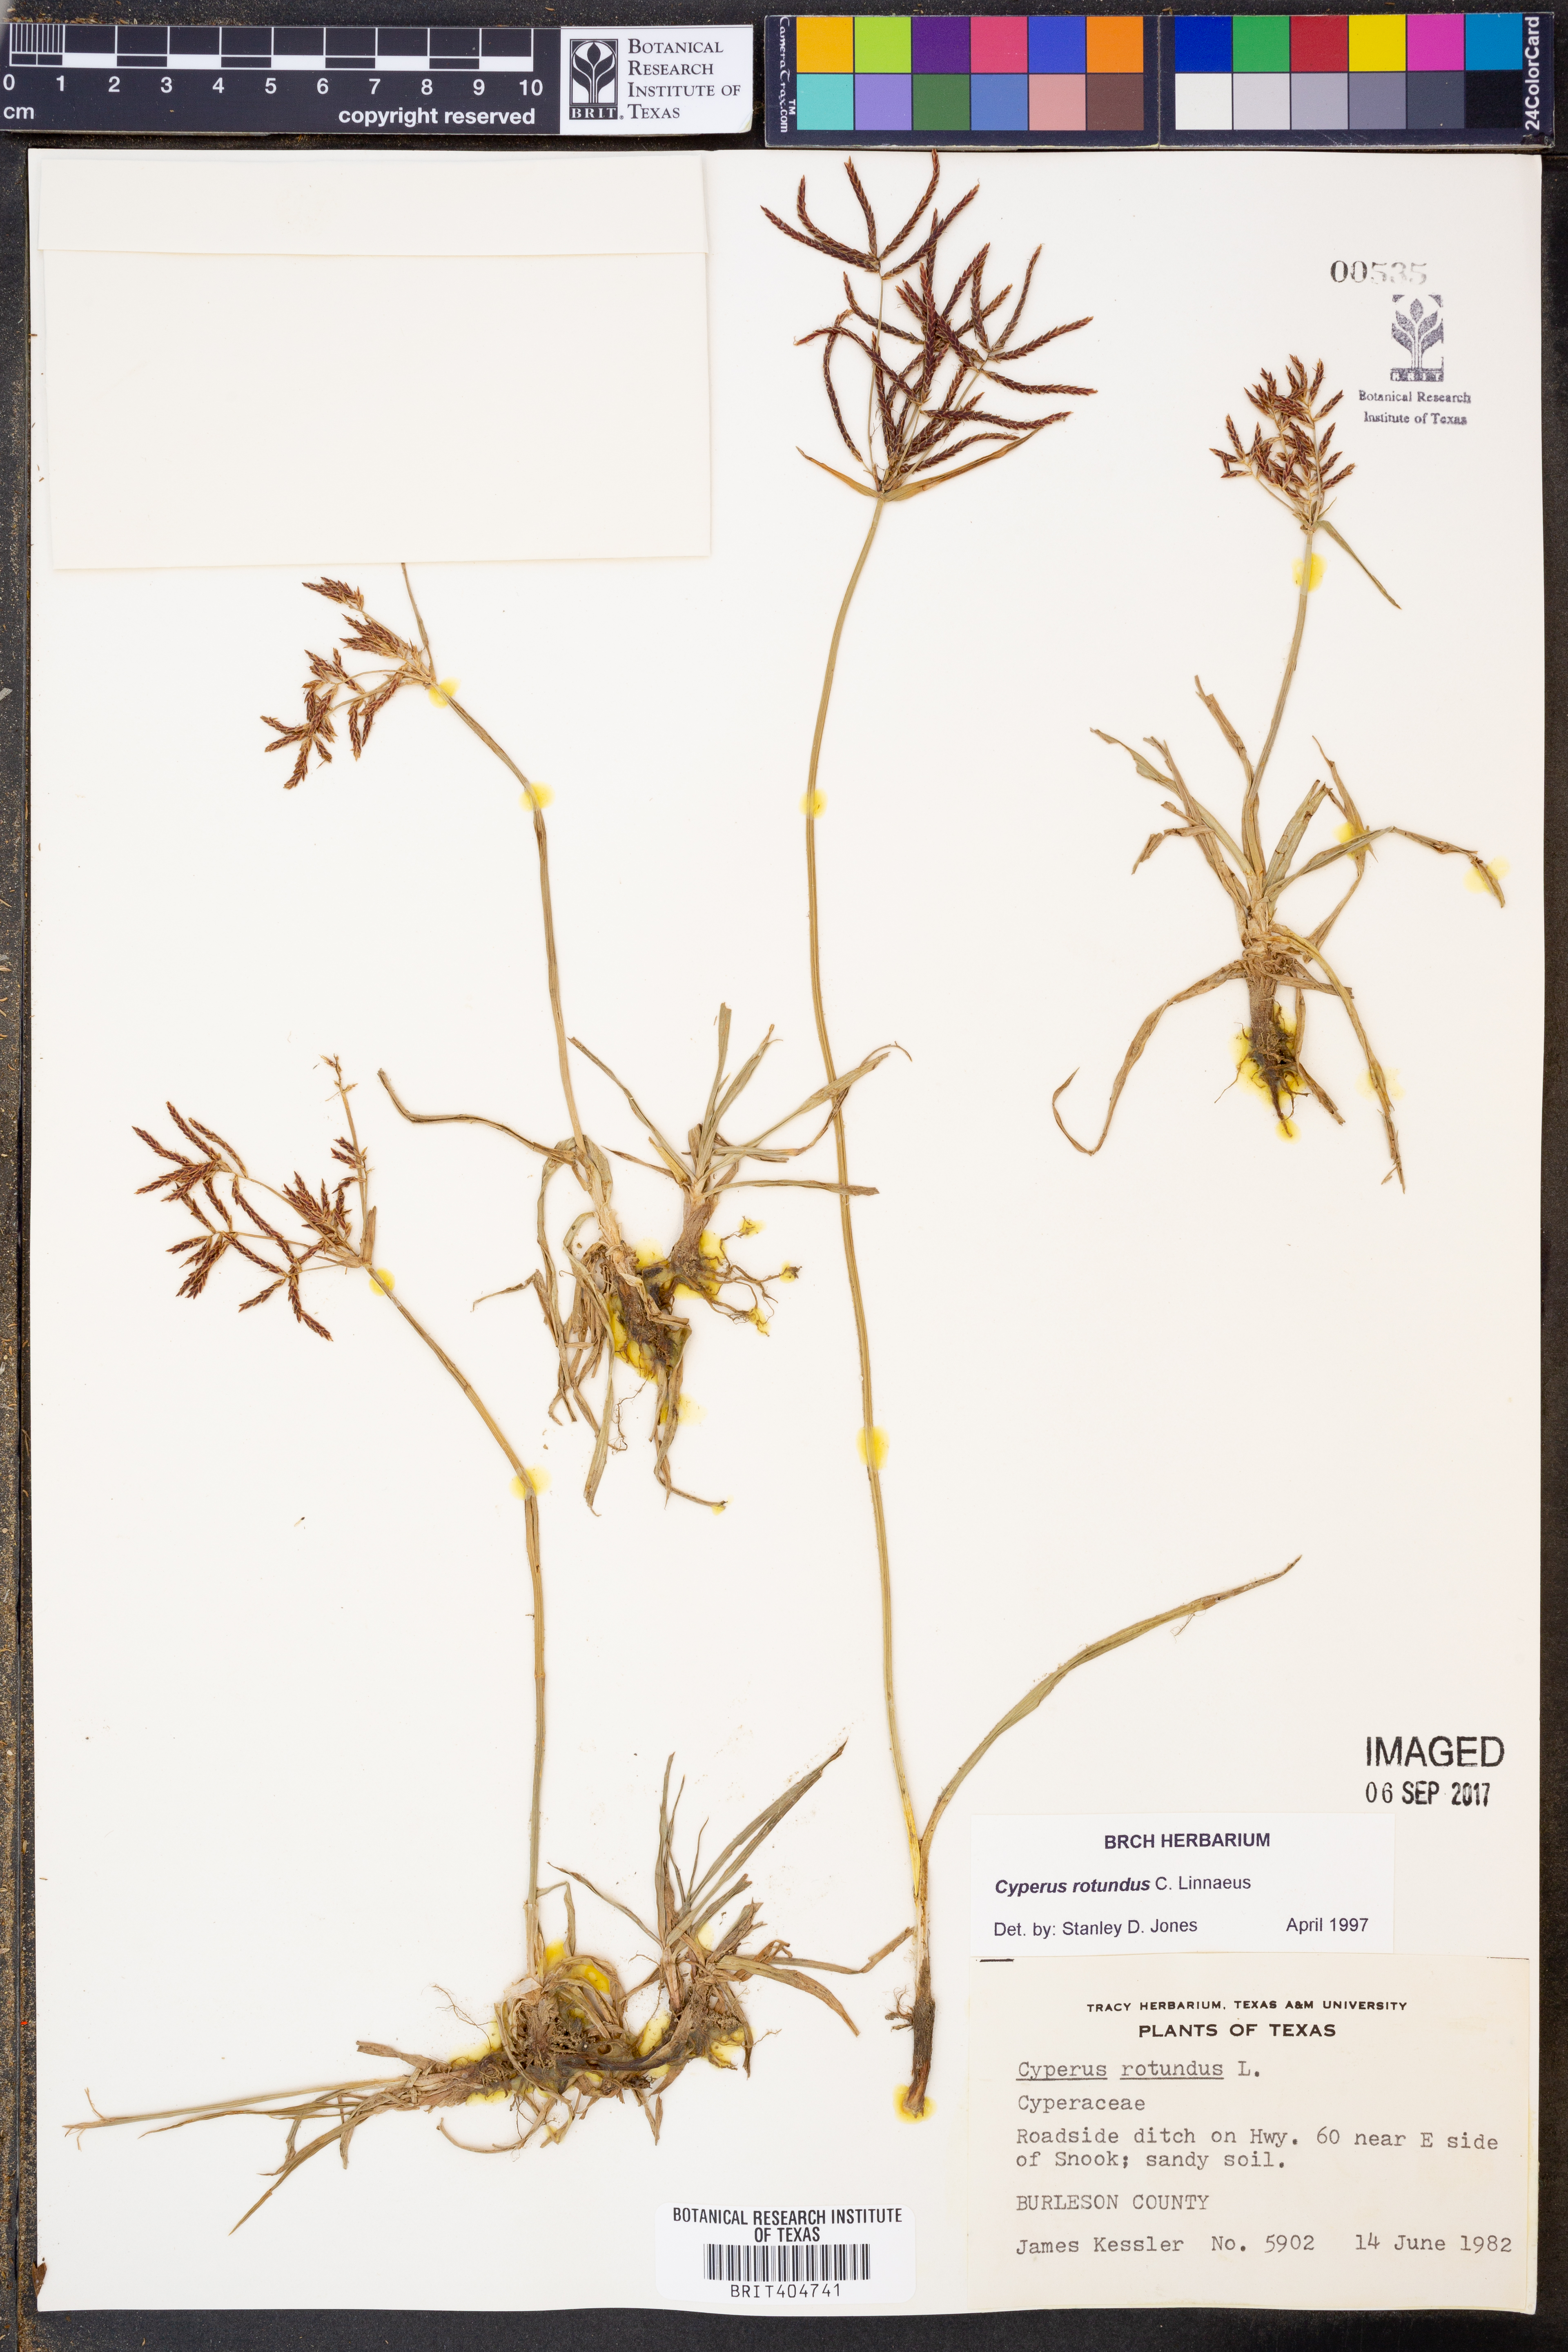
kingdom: Plantae
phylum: Tracheophyta
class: Liliopsida
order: Poales
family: Cyperaceae
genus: Cyperus
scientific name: Cyperus rotundus
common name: Nutgrass
